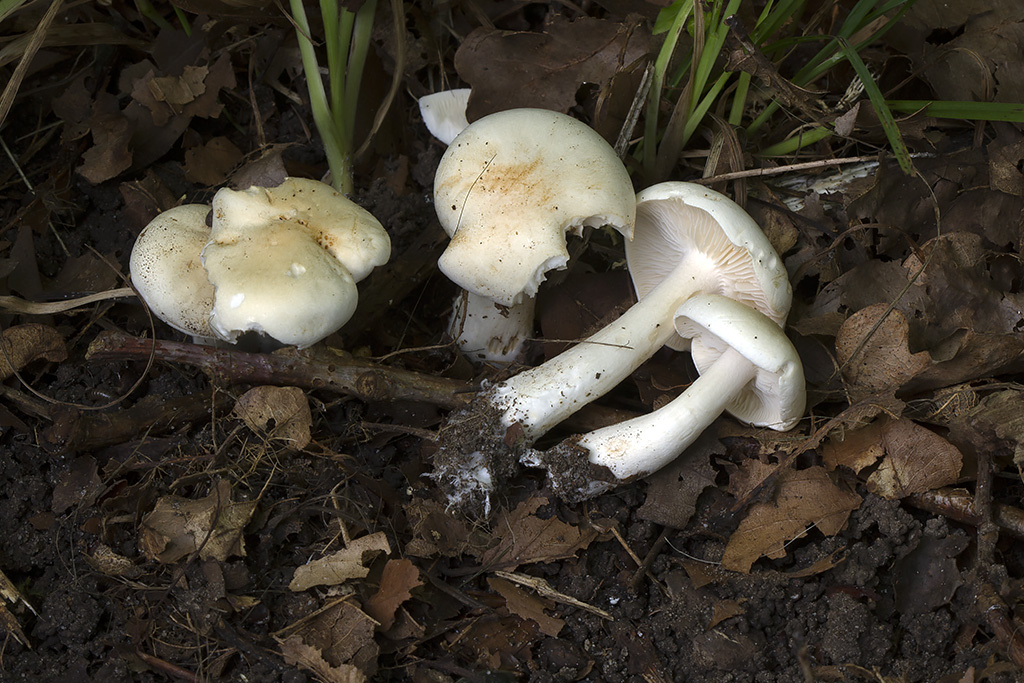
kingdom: Fungi
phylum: Basidiomycota
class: Agaricomycetes
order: Agaricales
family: Tricholomataceae
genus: Tricholoma
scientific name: Tricholoma album
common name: honning-ridderhat
